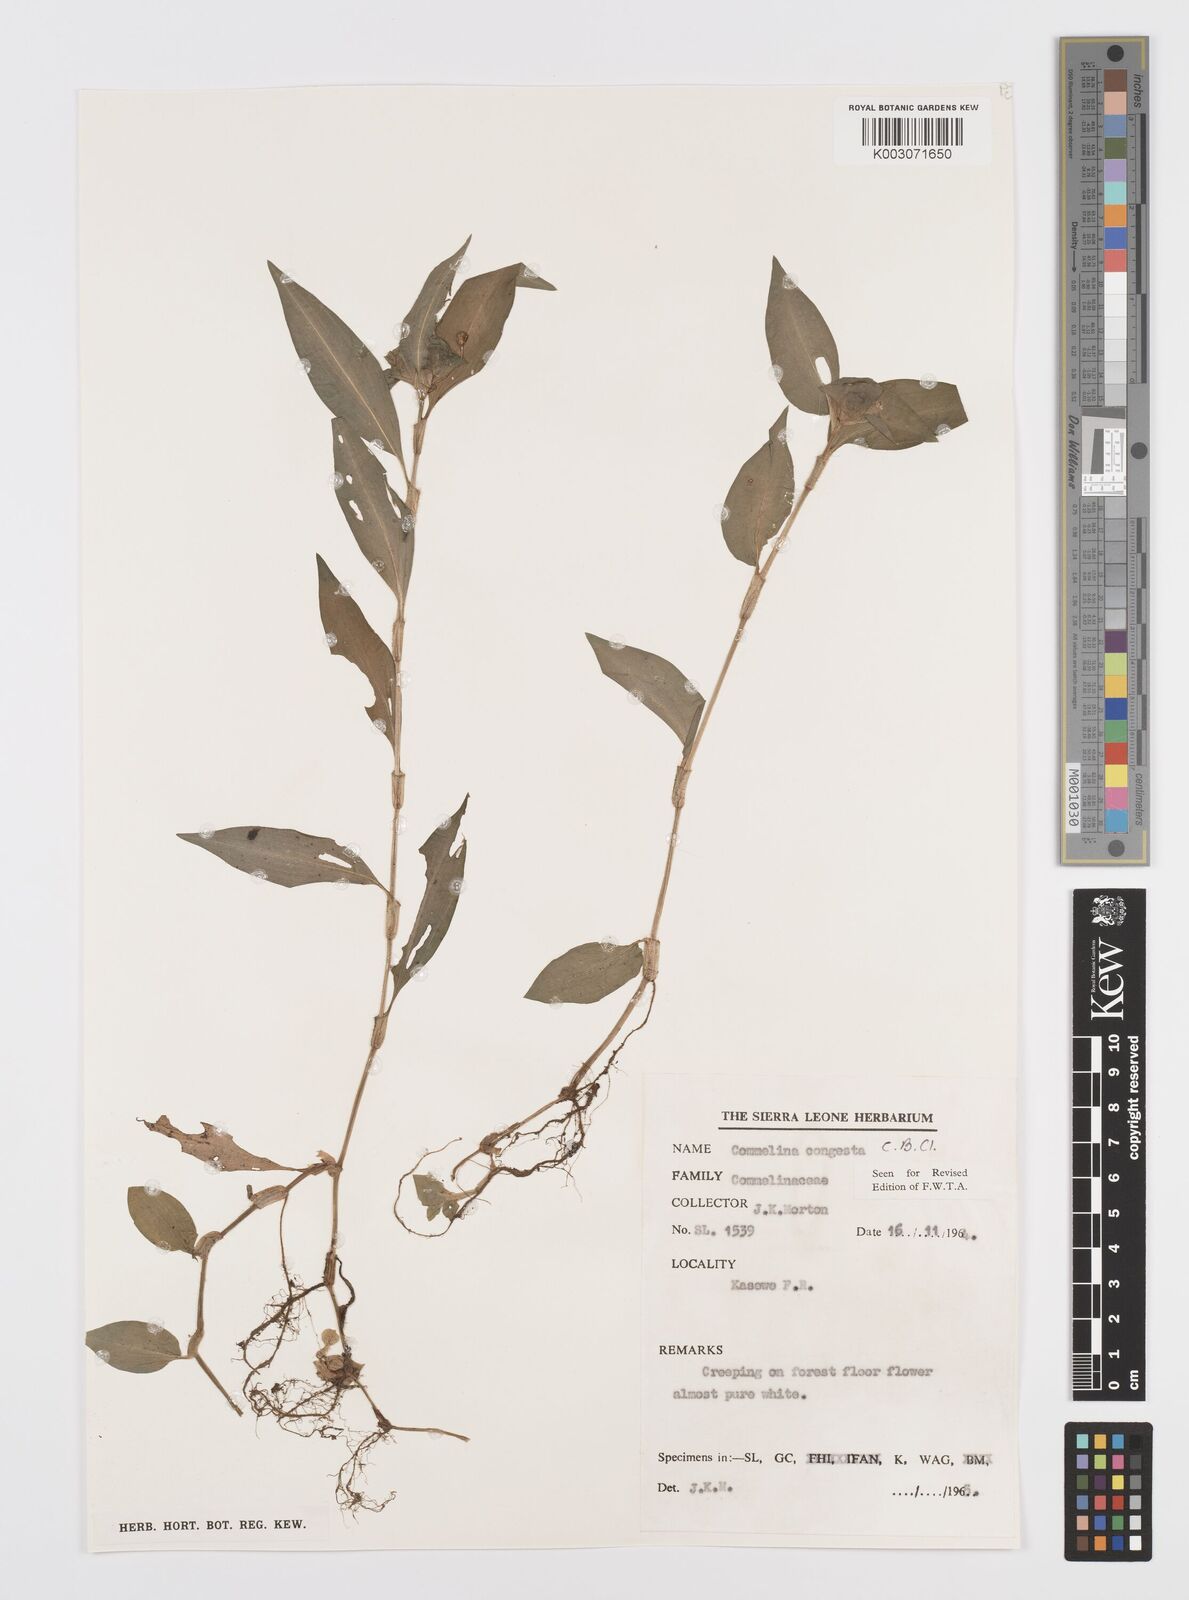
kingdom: Plantae
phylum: Tracheophyta
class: Liliopsida
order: Commelinales
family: Commelinaceae
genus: Commelina
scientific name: Commelina congesta
